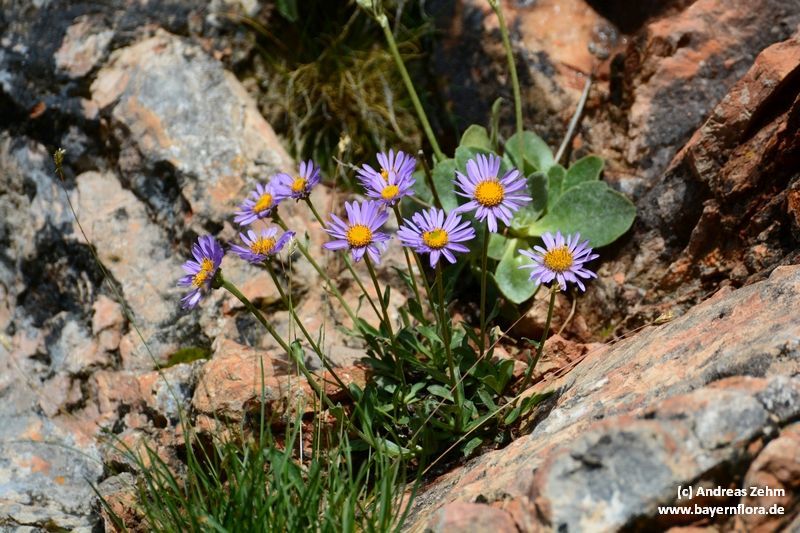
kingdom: Plantae
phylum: Tracheophyta
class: Magnoliopsida
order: Asterales
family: Asteraceae
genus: Aster
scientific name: Aster alpinus
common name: Alpine aster
